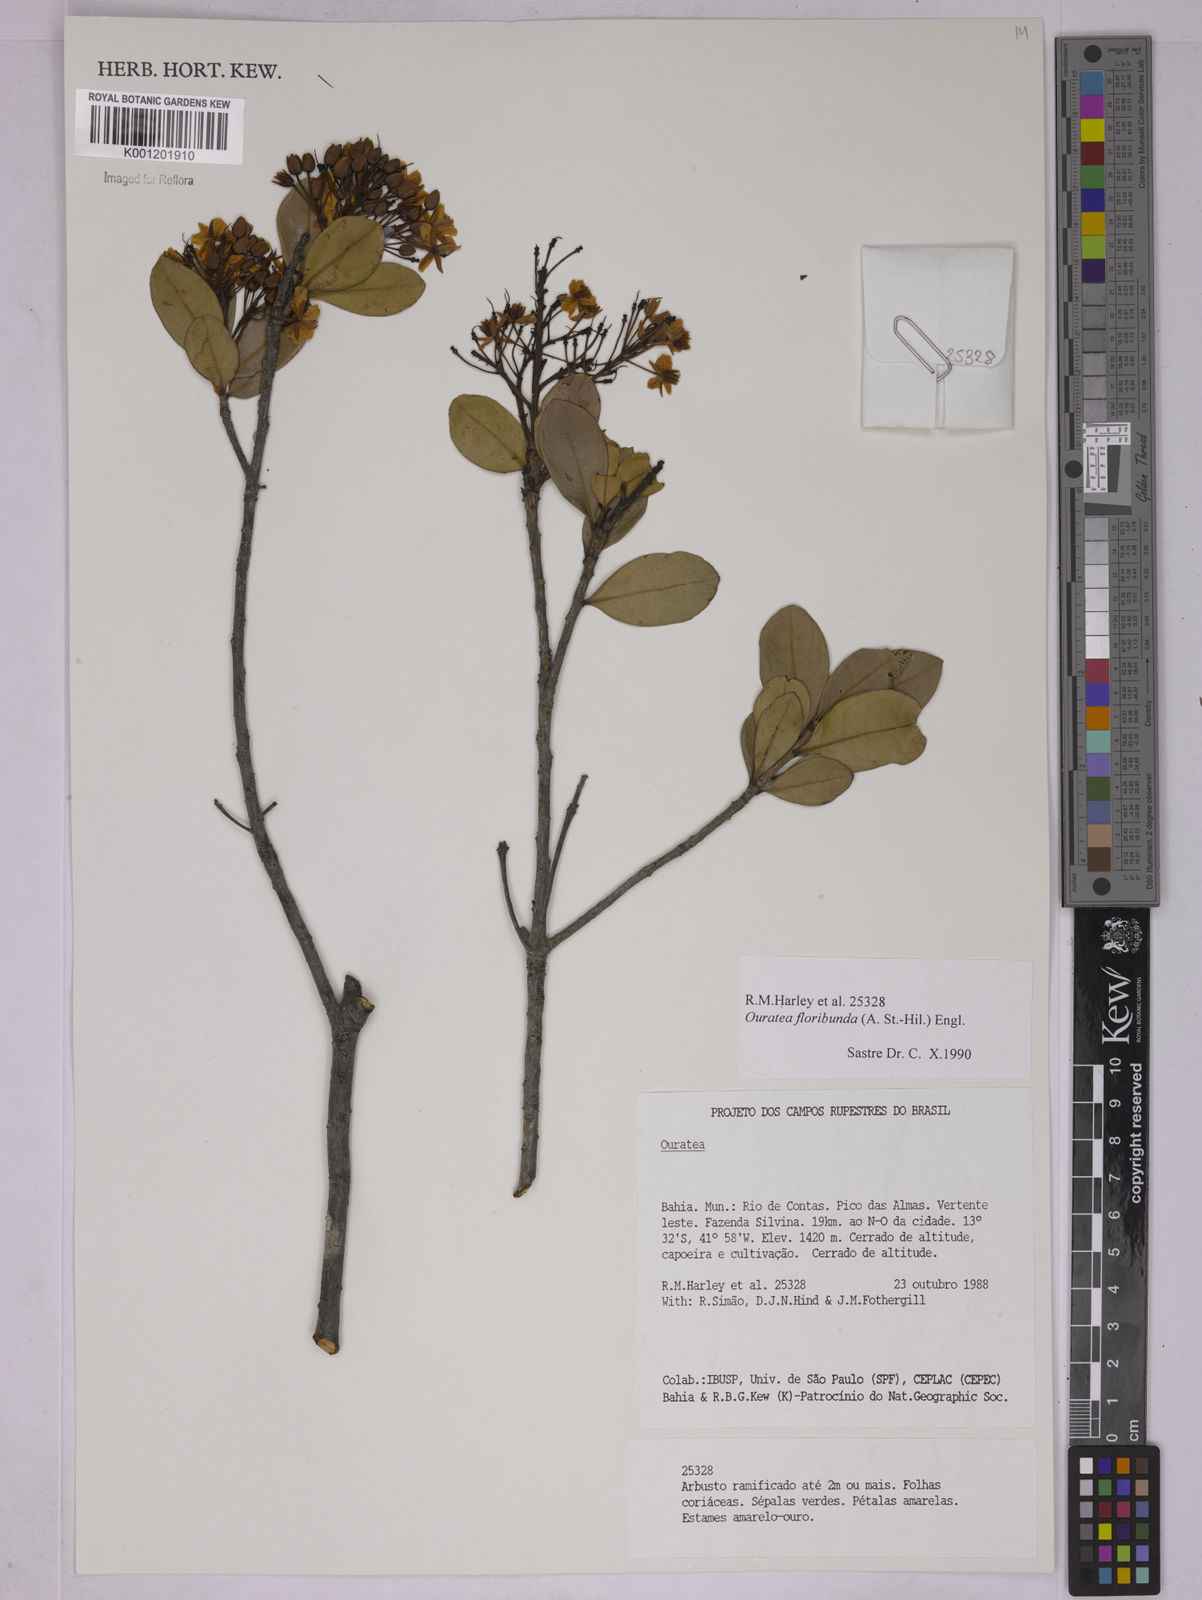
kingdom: Plantae
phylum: Tracheophyta
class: Magnoliopsida
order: Malpighiales
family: Ochnaceae
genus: Ouratea
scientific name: Ouratea floribunda
